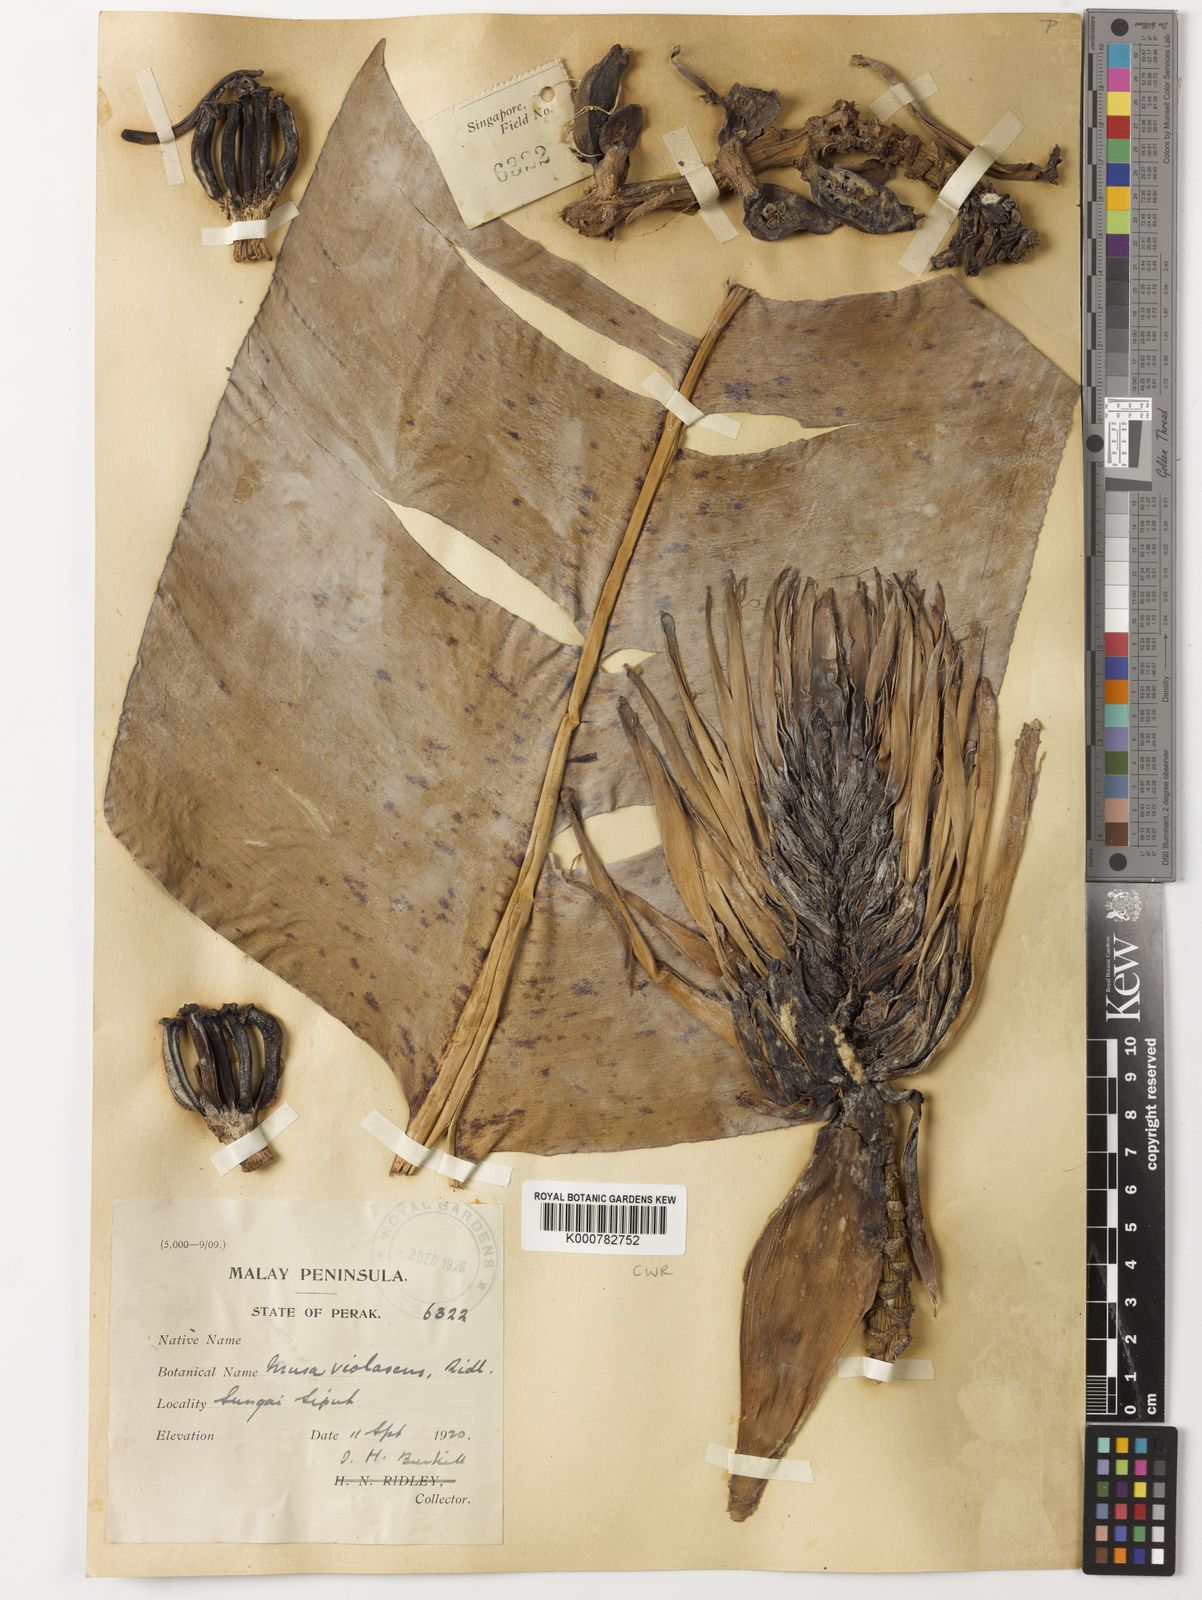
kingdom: Plantae
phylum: Tracheophyta
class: Liliopsida
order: Zingiberales
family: Musaceae
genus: Musa
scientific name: Musa
